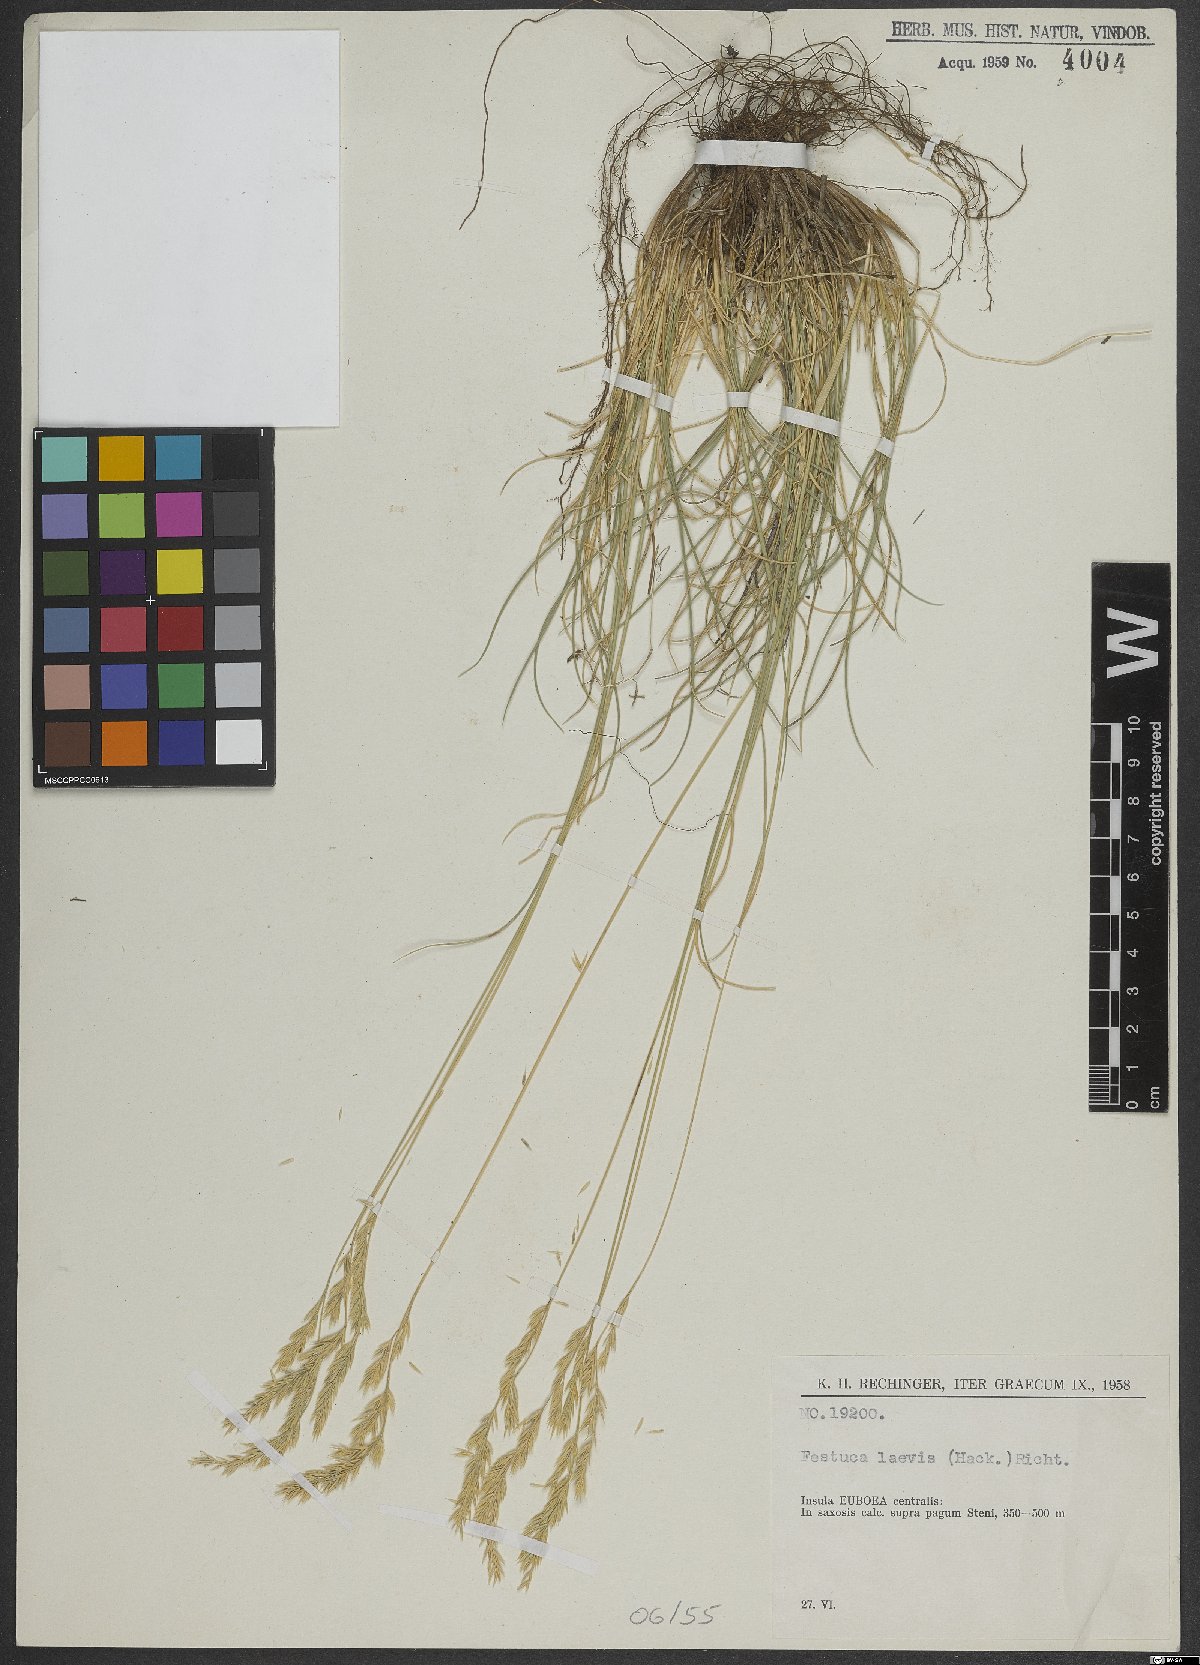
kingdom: Plantae
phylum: Tracheophyta
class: Liliopsida
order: Poales
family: Poaceae
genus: Festuca
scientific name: Festuca circummediterranea
